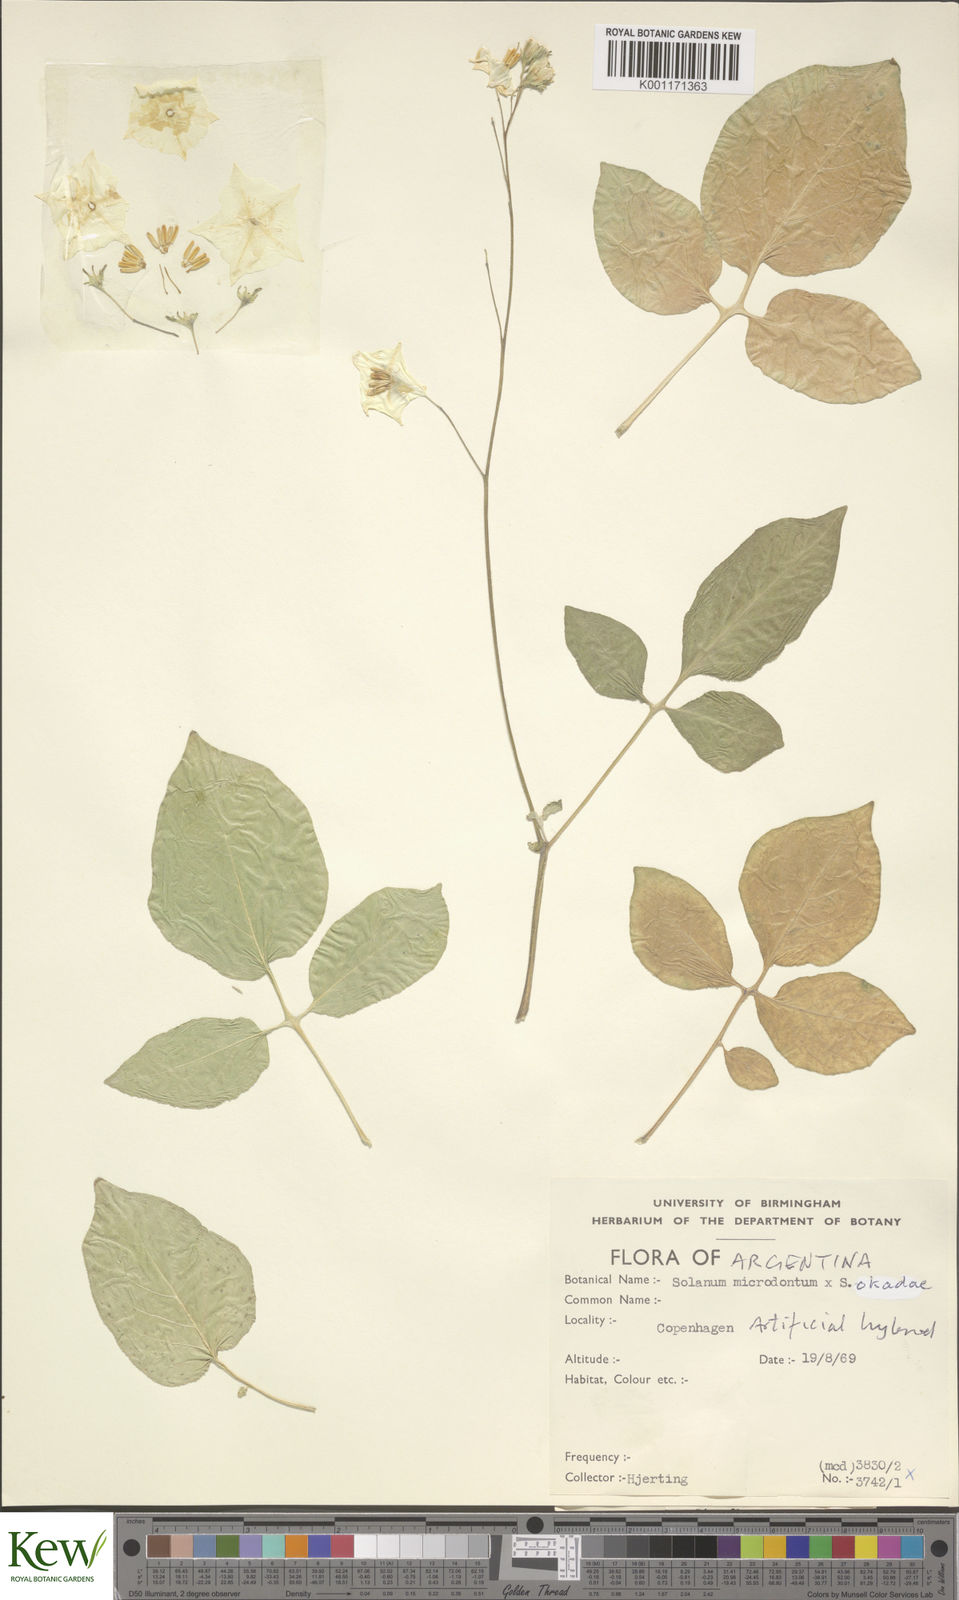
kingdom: Plantae
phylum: Tracheophyta
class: Magnoliopsida
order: Solanales
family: Solanaceae
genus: Solanum
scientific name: Solanum microdontum
